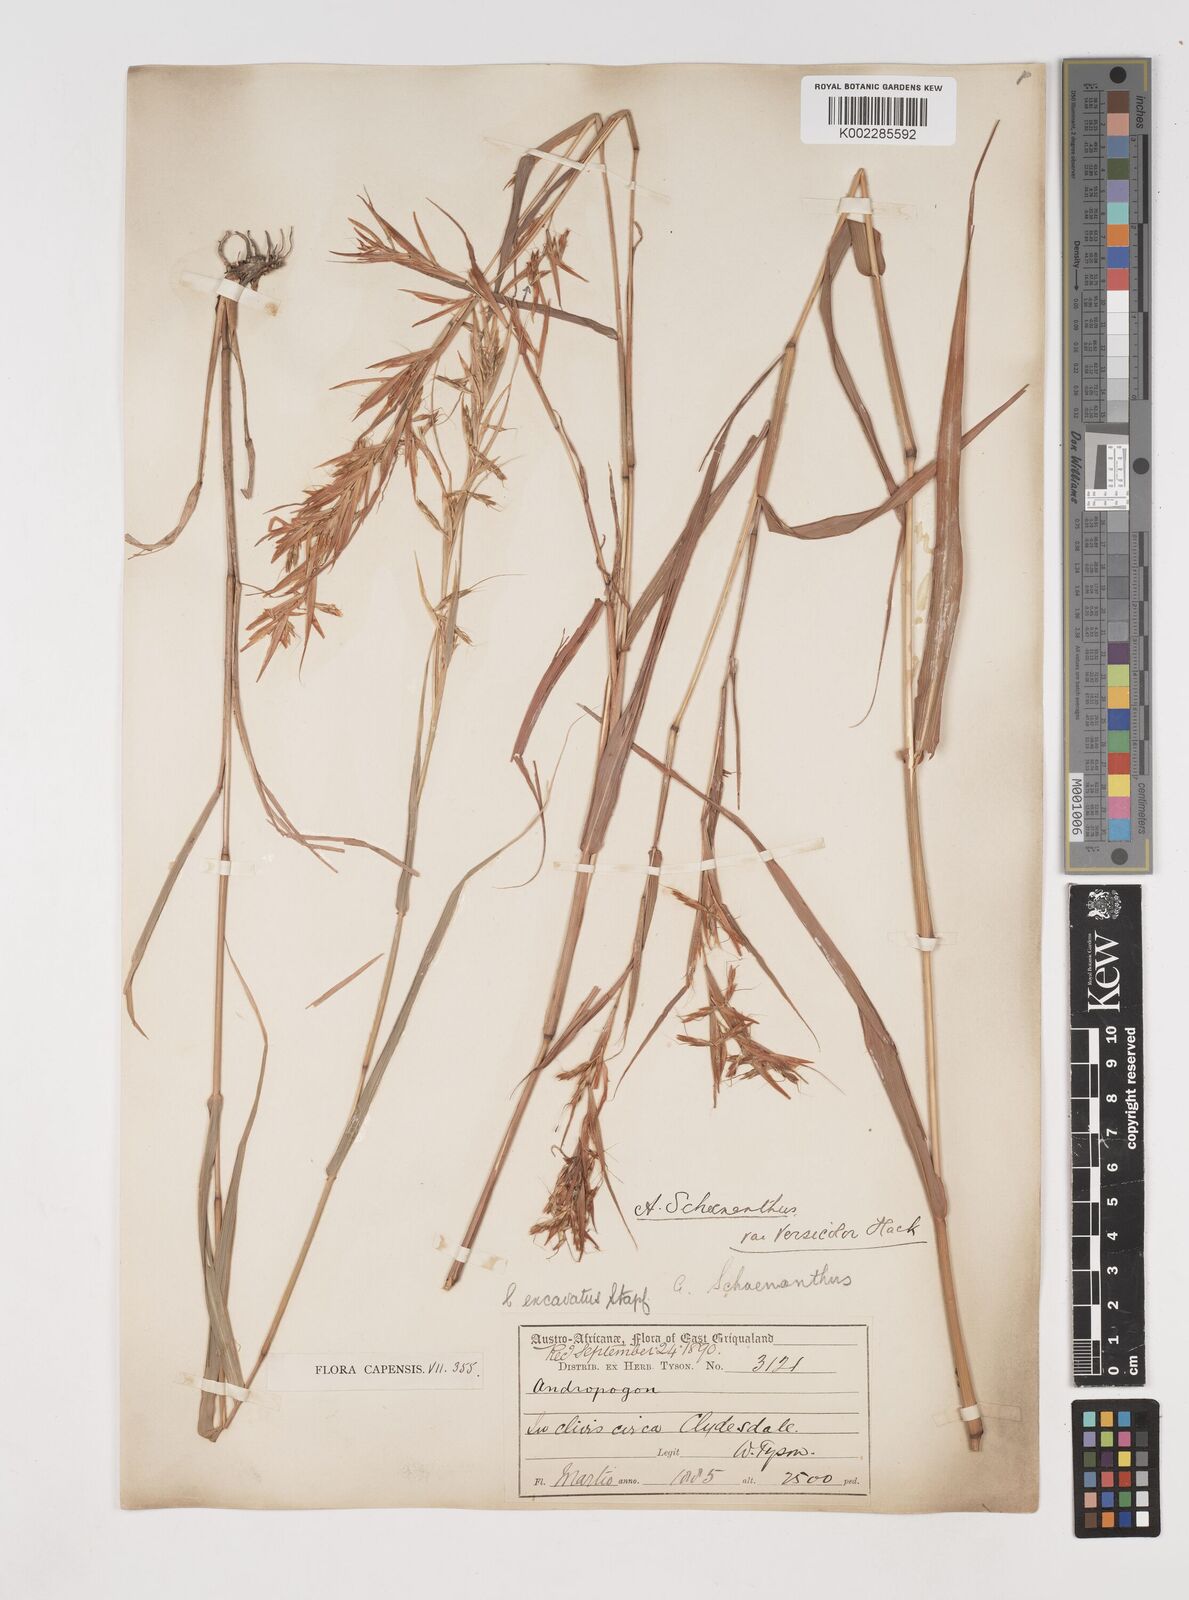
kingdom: Plantae
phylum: Tracheophyta
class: Liliopsida
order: Poales
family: Poaceae
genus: Cymbopogon
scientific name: Cymbopogon caesius
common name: Kachi grass
